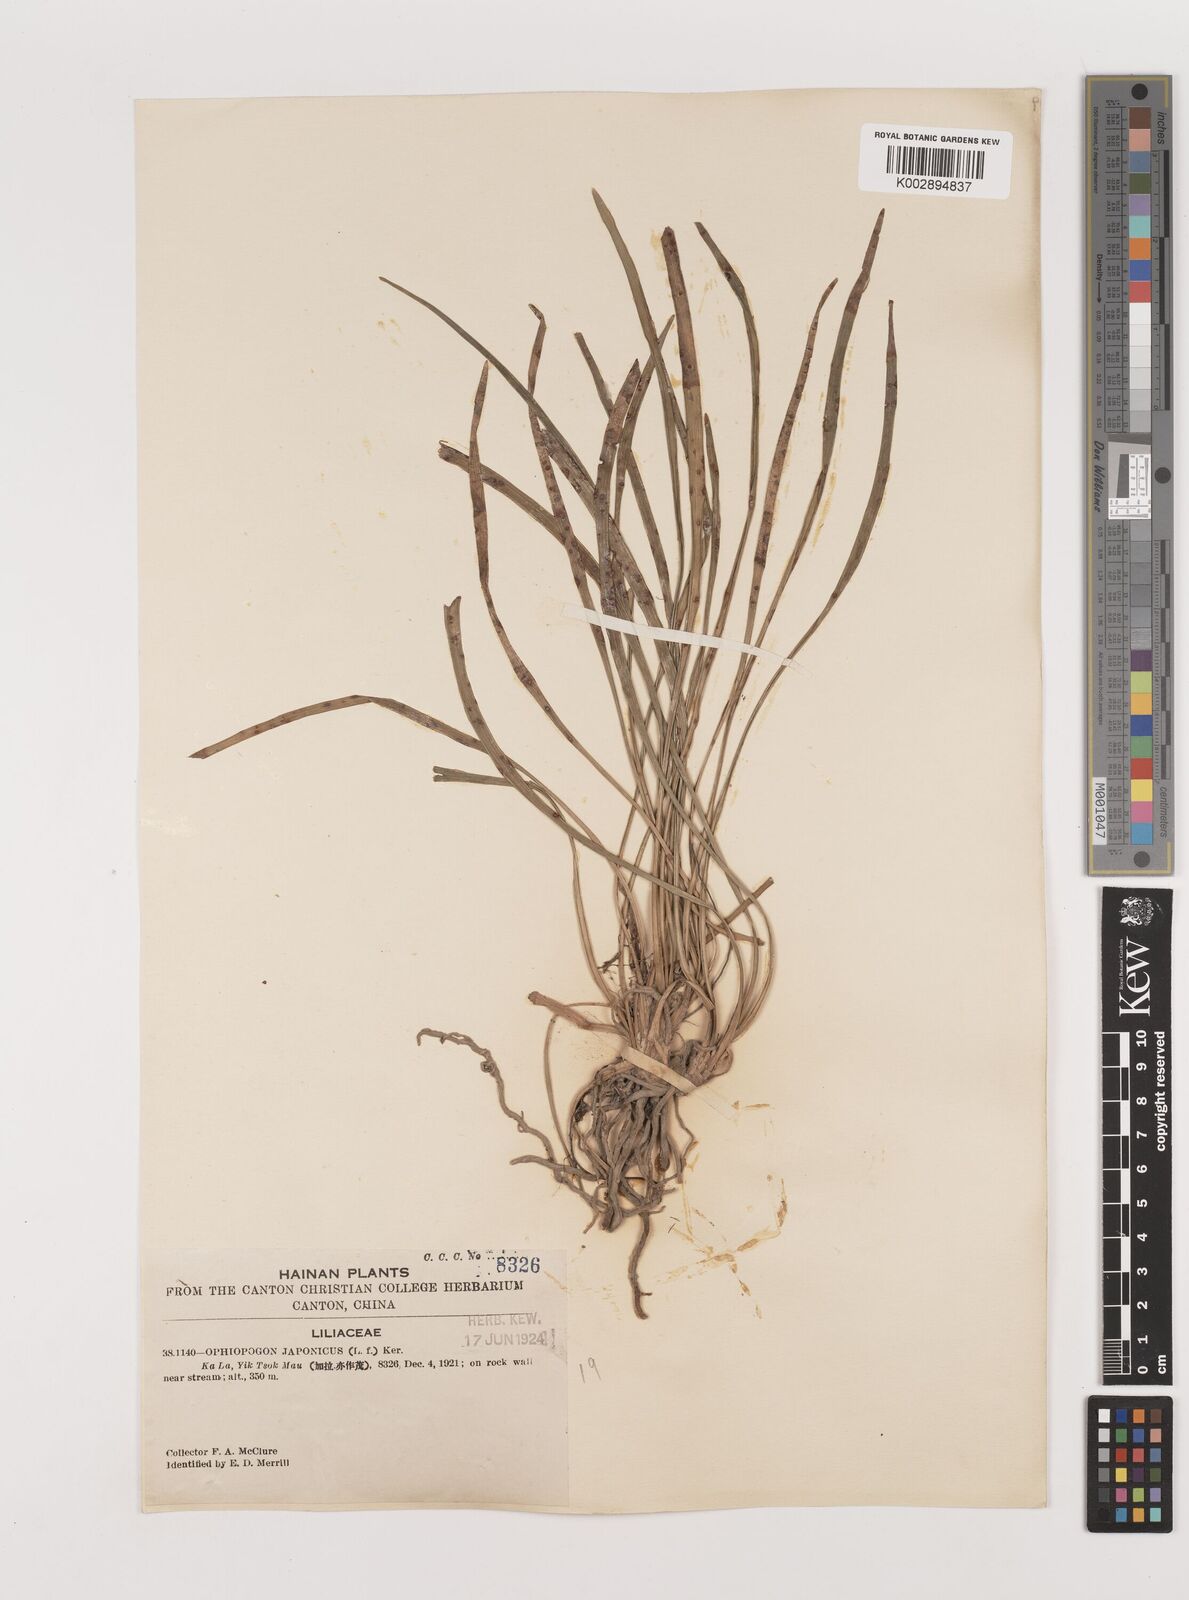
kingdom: Plantae
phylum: Tracheophyta
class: Liliopsida
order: Asparagales
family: Asparagaceae
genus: Ophiopogon
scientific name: Ophiopogon stenophyllus
